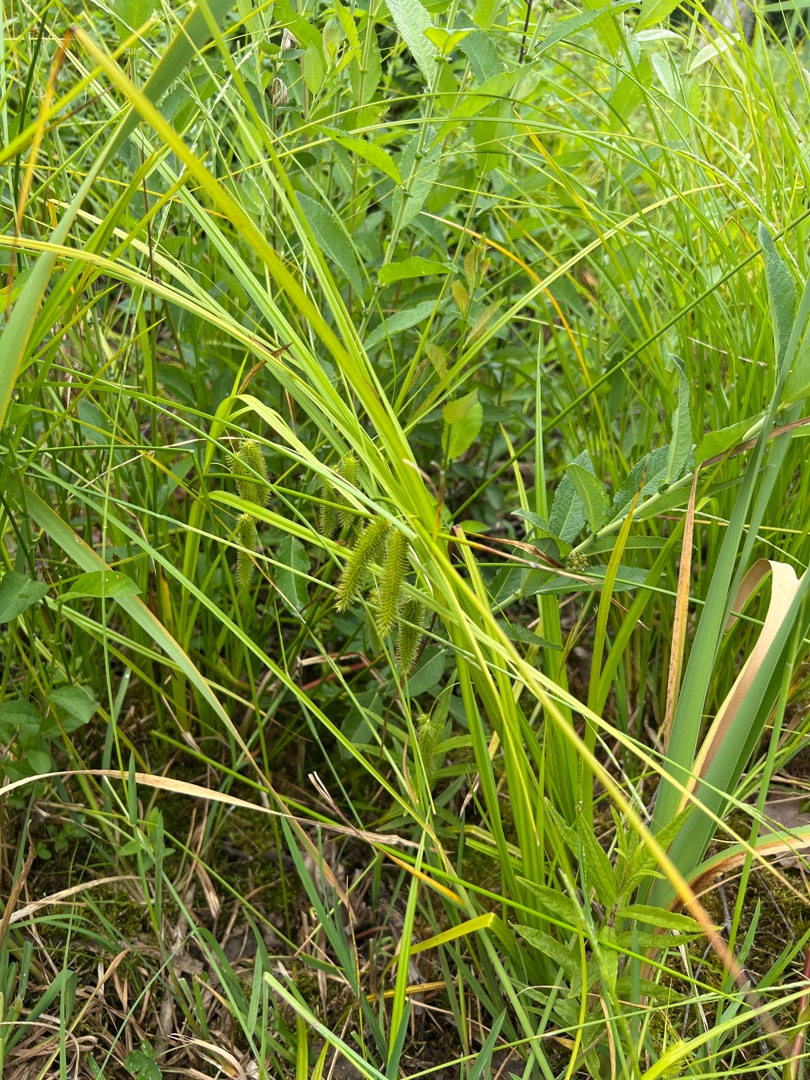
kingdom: Plantae
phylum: Tracheophyta
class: Liliopsida
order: Poales
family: Cyperaceae
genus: Carex
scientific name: Carex pseudocyperus
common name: Knippe-star
